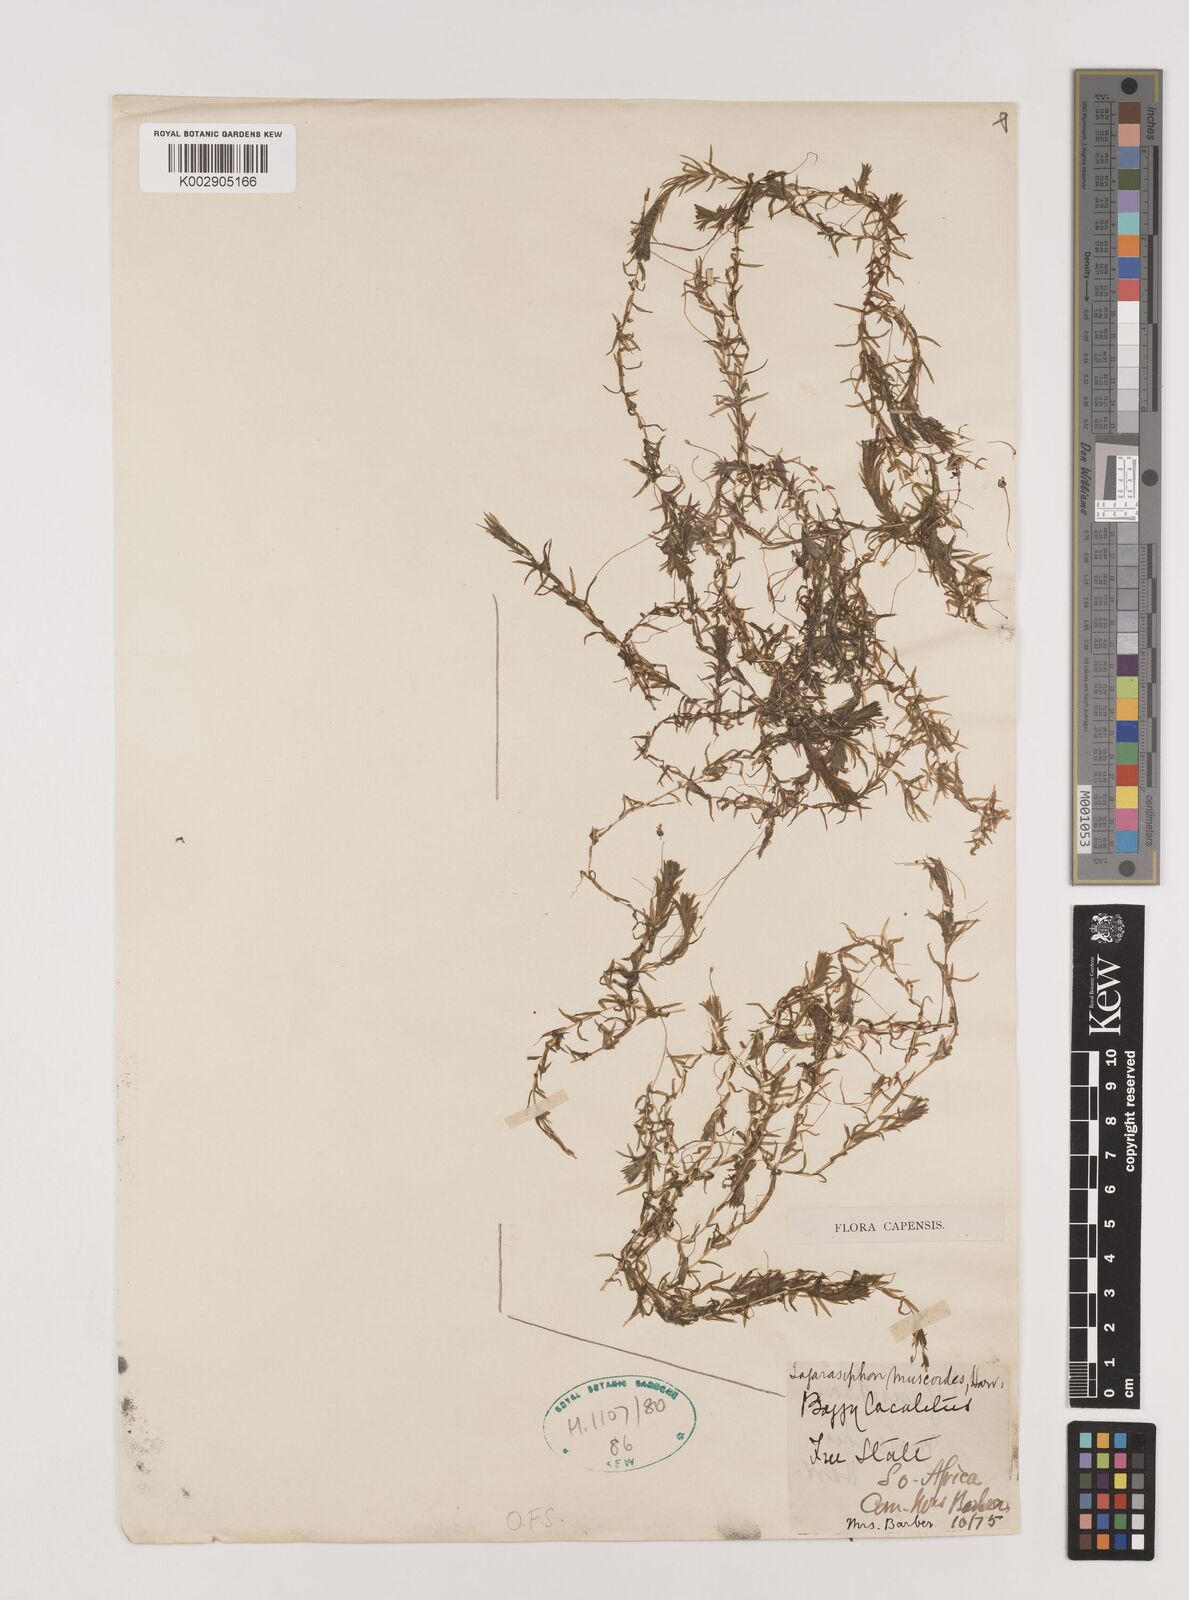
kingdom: Plantae
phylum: Tracheophyta
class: Liliopsida
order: Alismatales
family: Hydrocharitaceae
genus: Lagarosiphon
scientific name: Lagarosiphon muscoides
